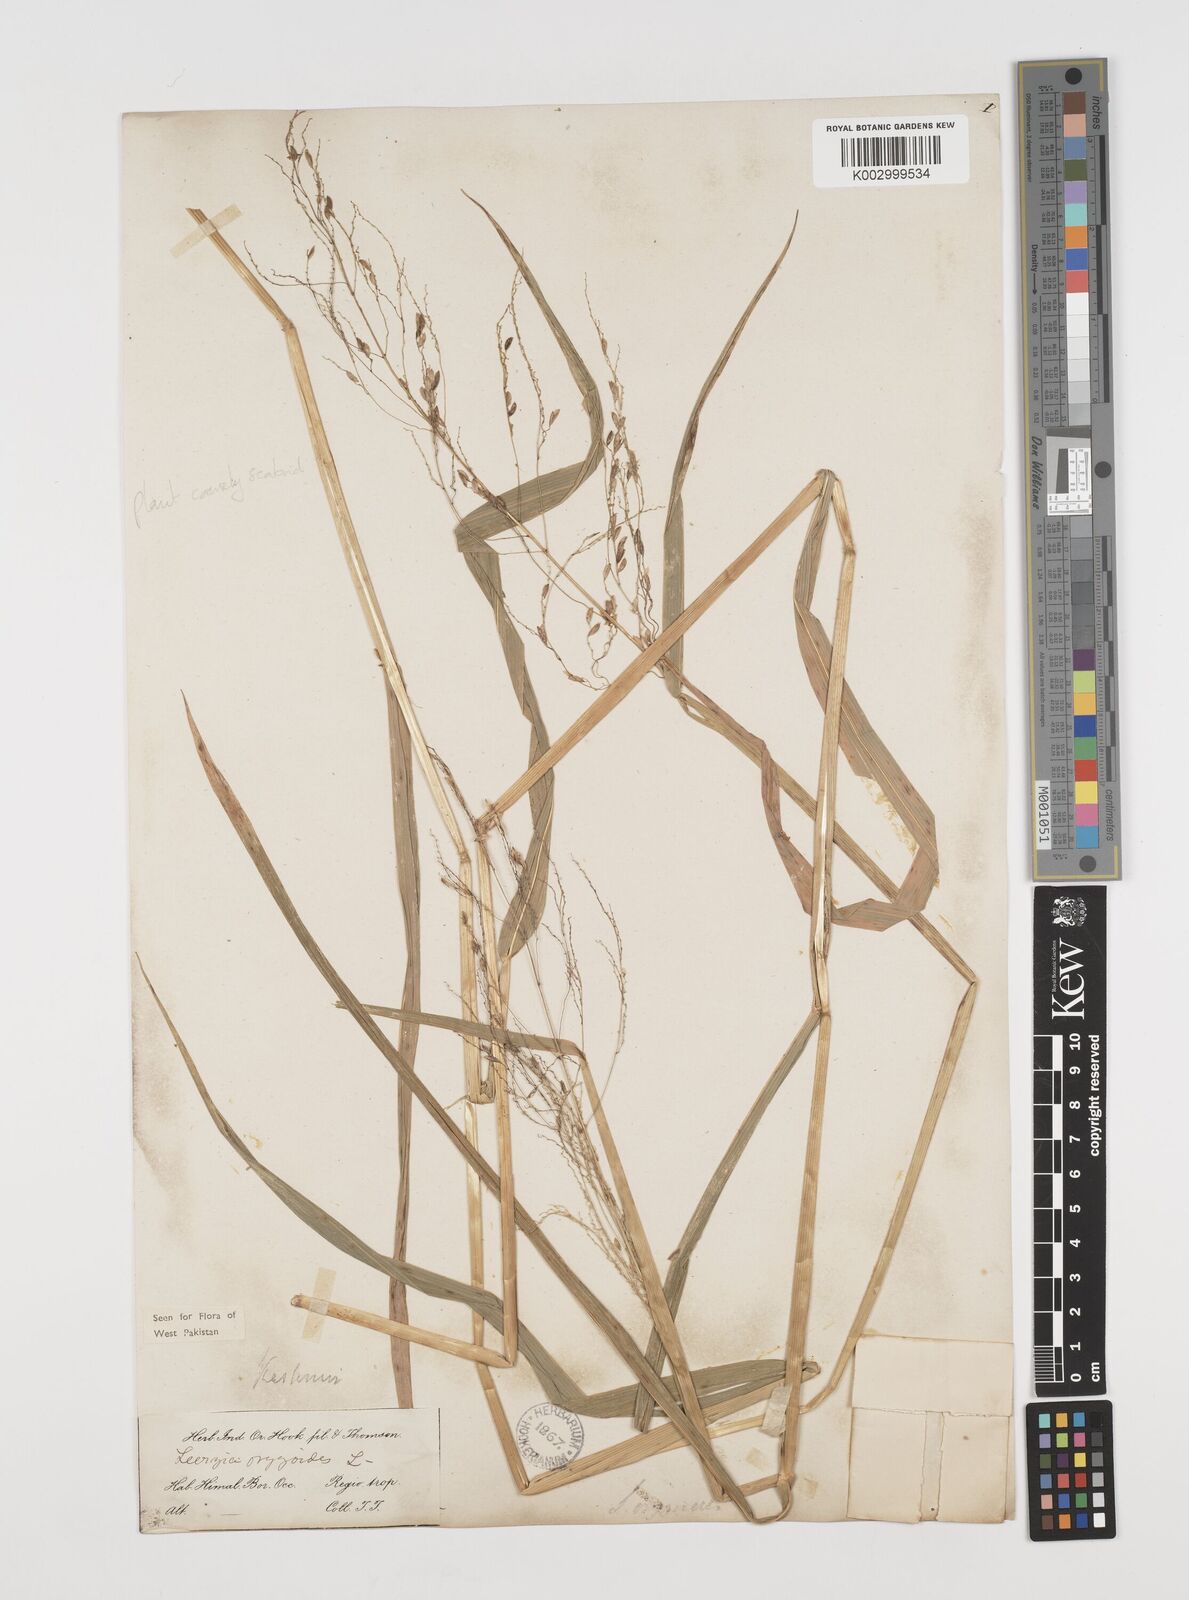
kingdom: Plantae
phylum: Tracheophyta
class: Liliopsida
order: Poales
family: Poaceae
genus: Leersia
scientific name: Leersia oryzoides
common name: Cut-grass
